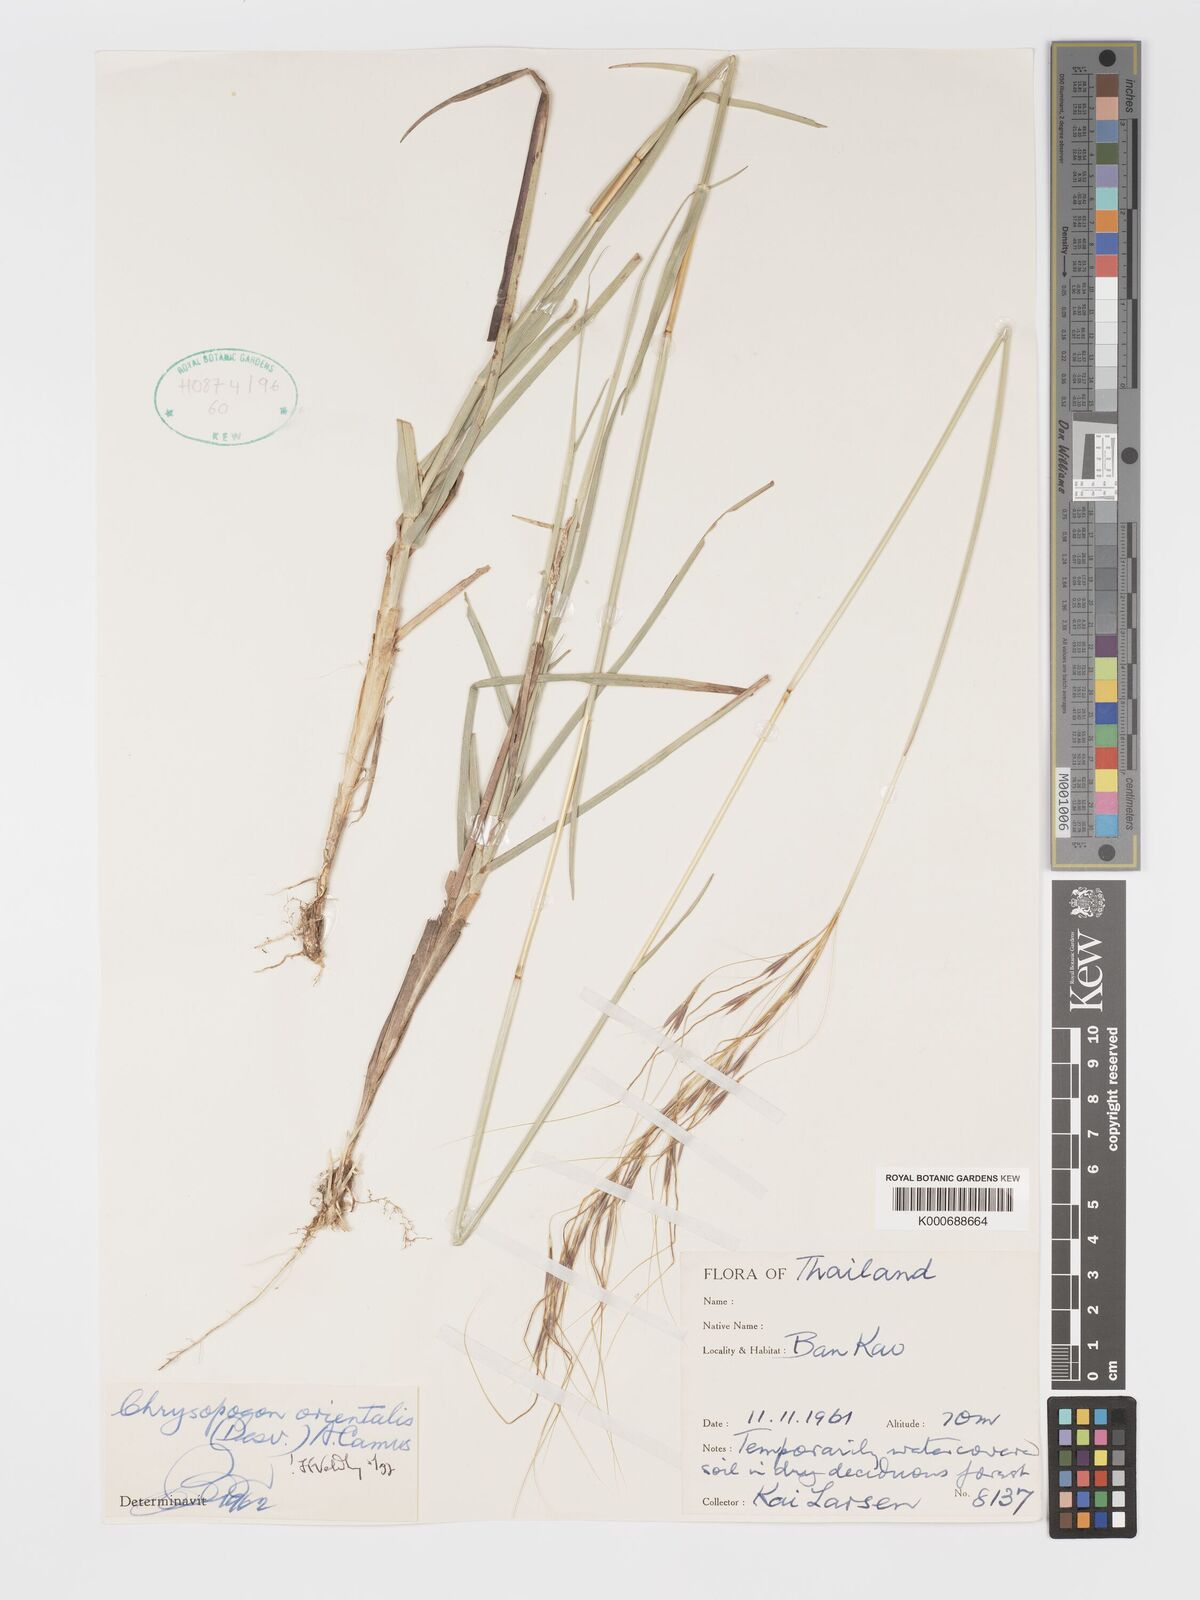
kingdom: Plantae
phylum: Tracheophyta
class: Liliopsida
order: Poales
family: Poaceae
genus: Chrysopogon
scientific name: Chrysopogon orientalis
